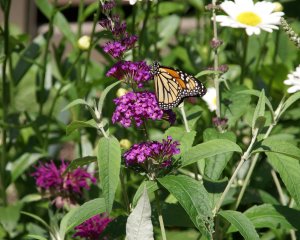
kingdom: Animalia
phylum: Arthropoda
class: Insecta
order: Lepidoptera
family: Nymphalidae
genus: Danaus
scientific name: Danaus plexippus
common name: Monarch
